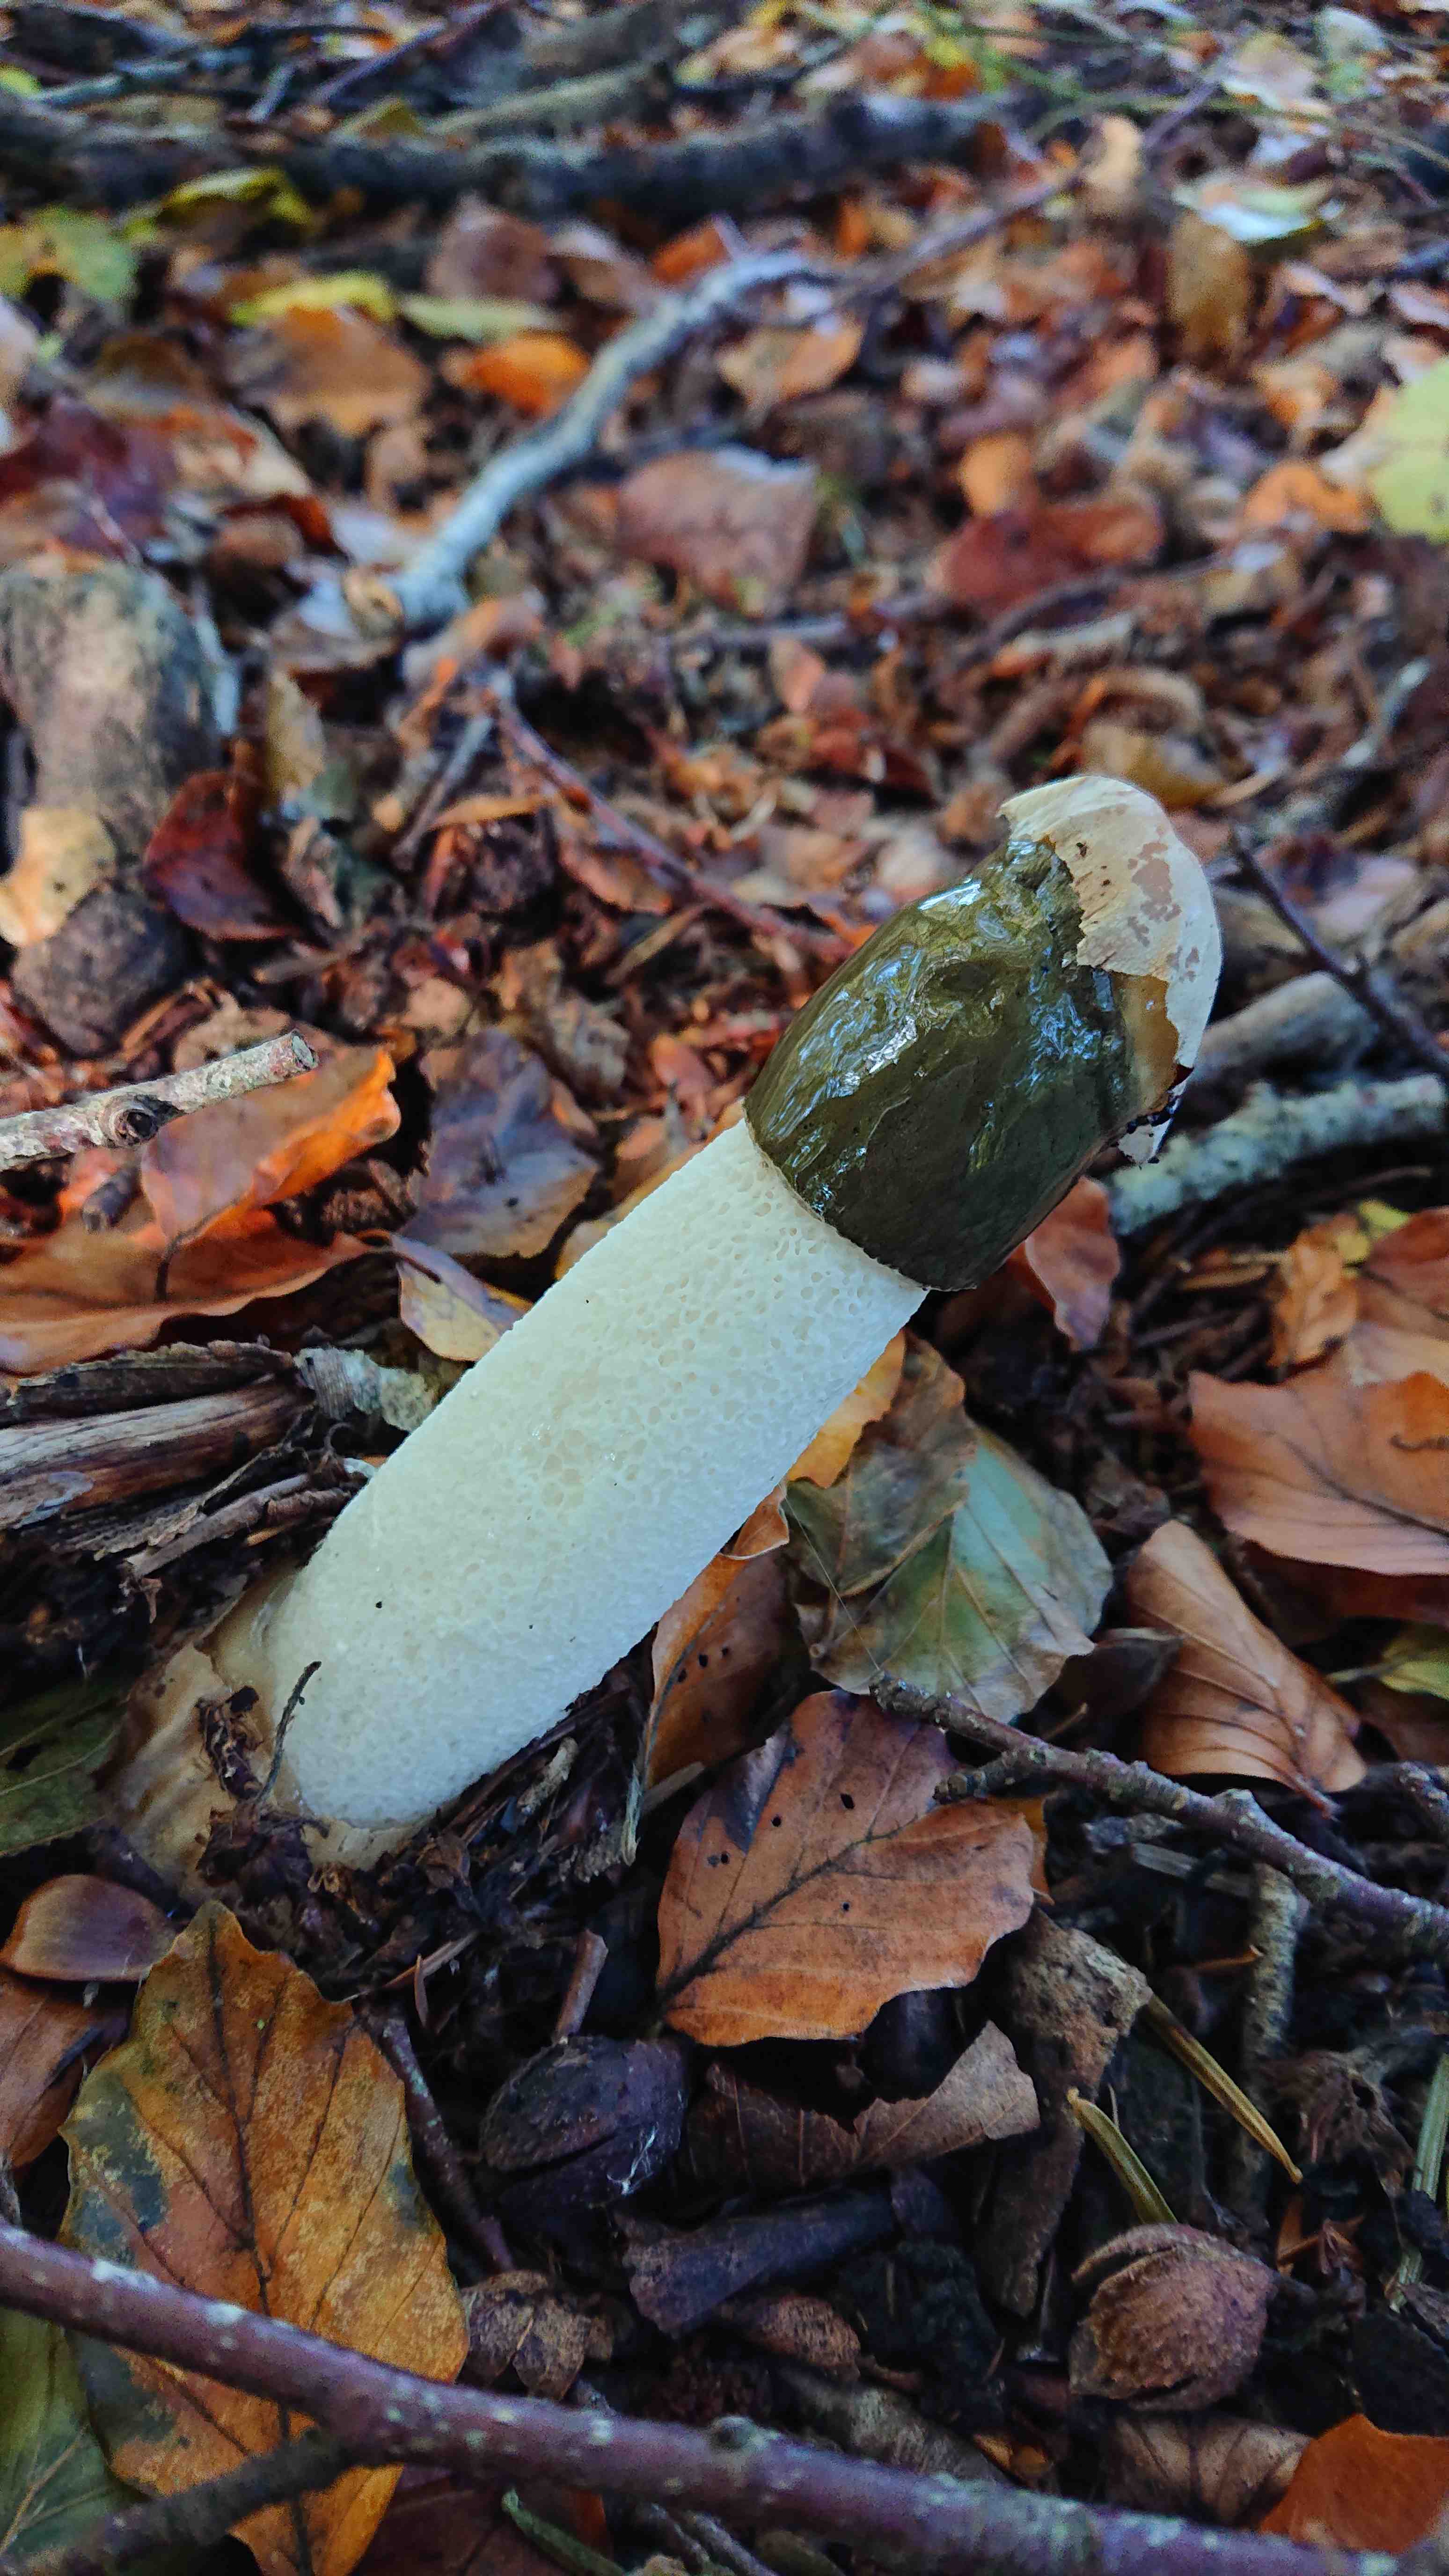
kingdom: Fungi
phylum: Basidiomycota
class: Agaricomycetes
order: Phallales
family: Phallaceae
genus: Phallus
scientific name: Phallus impudicus
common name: almindelig stinksvamp
